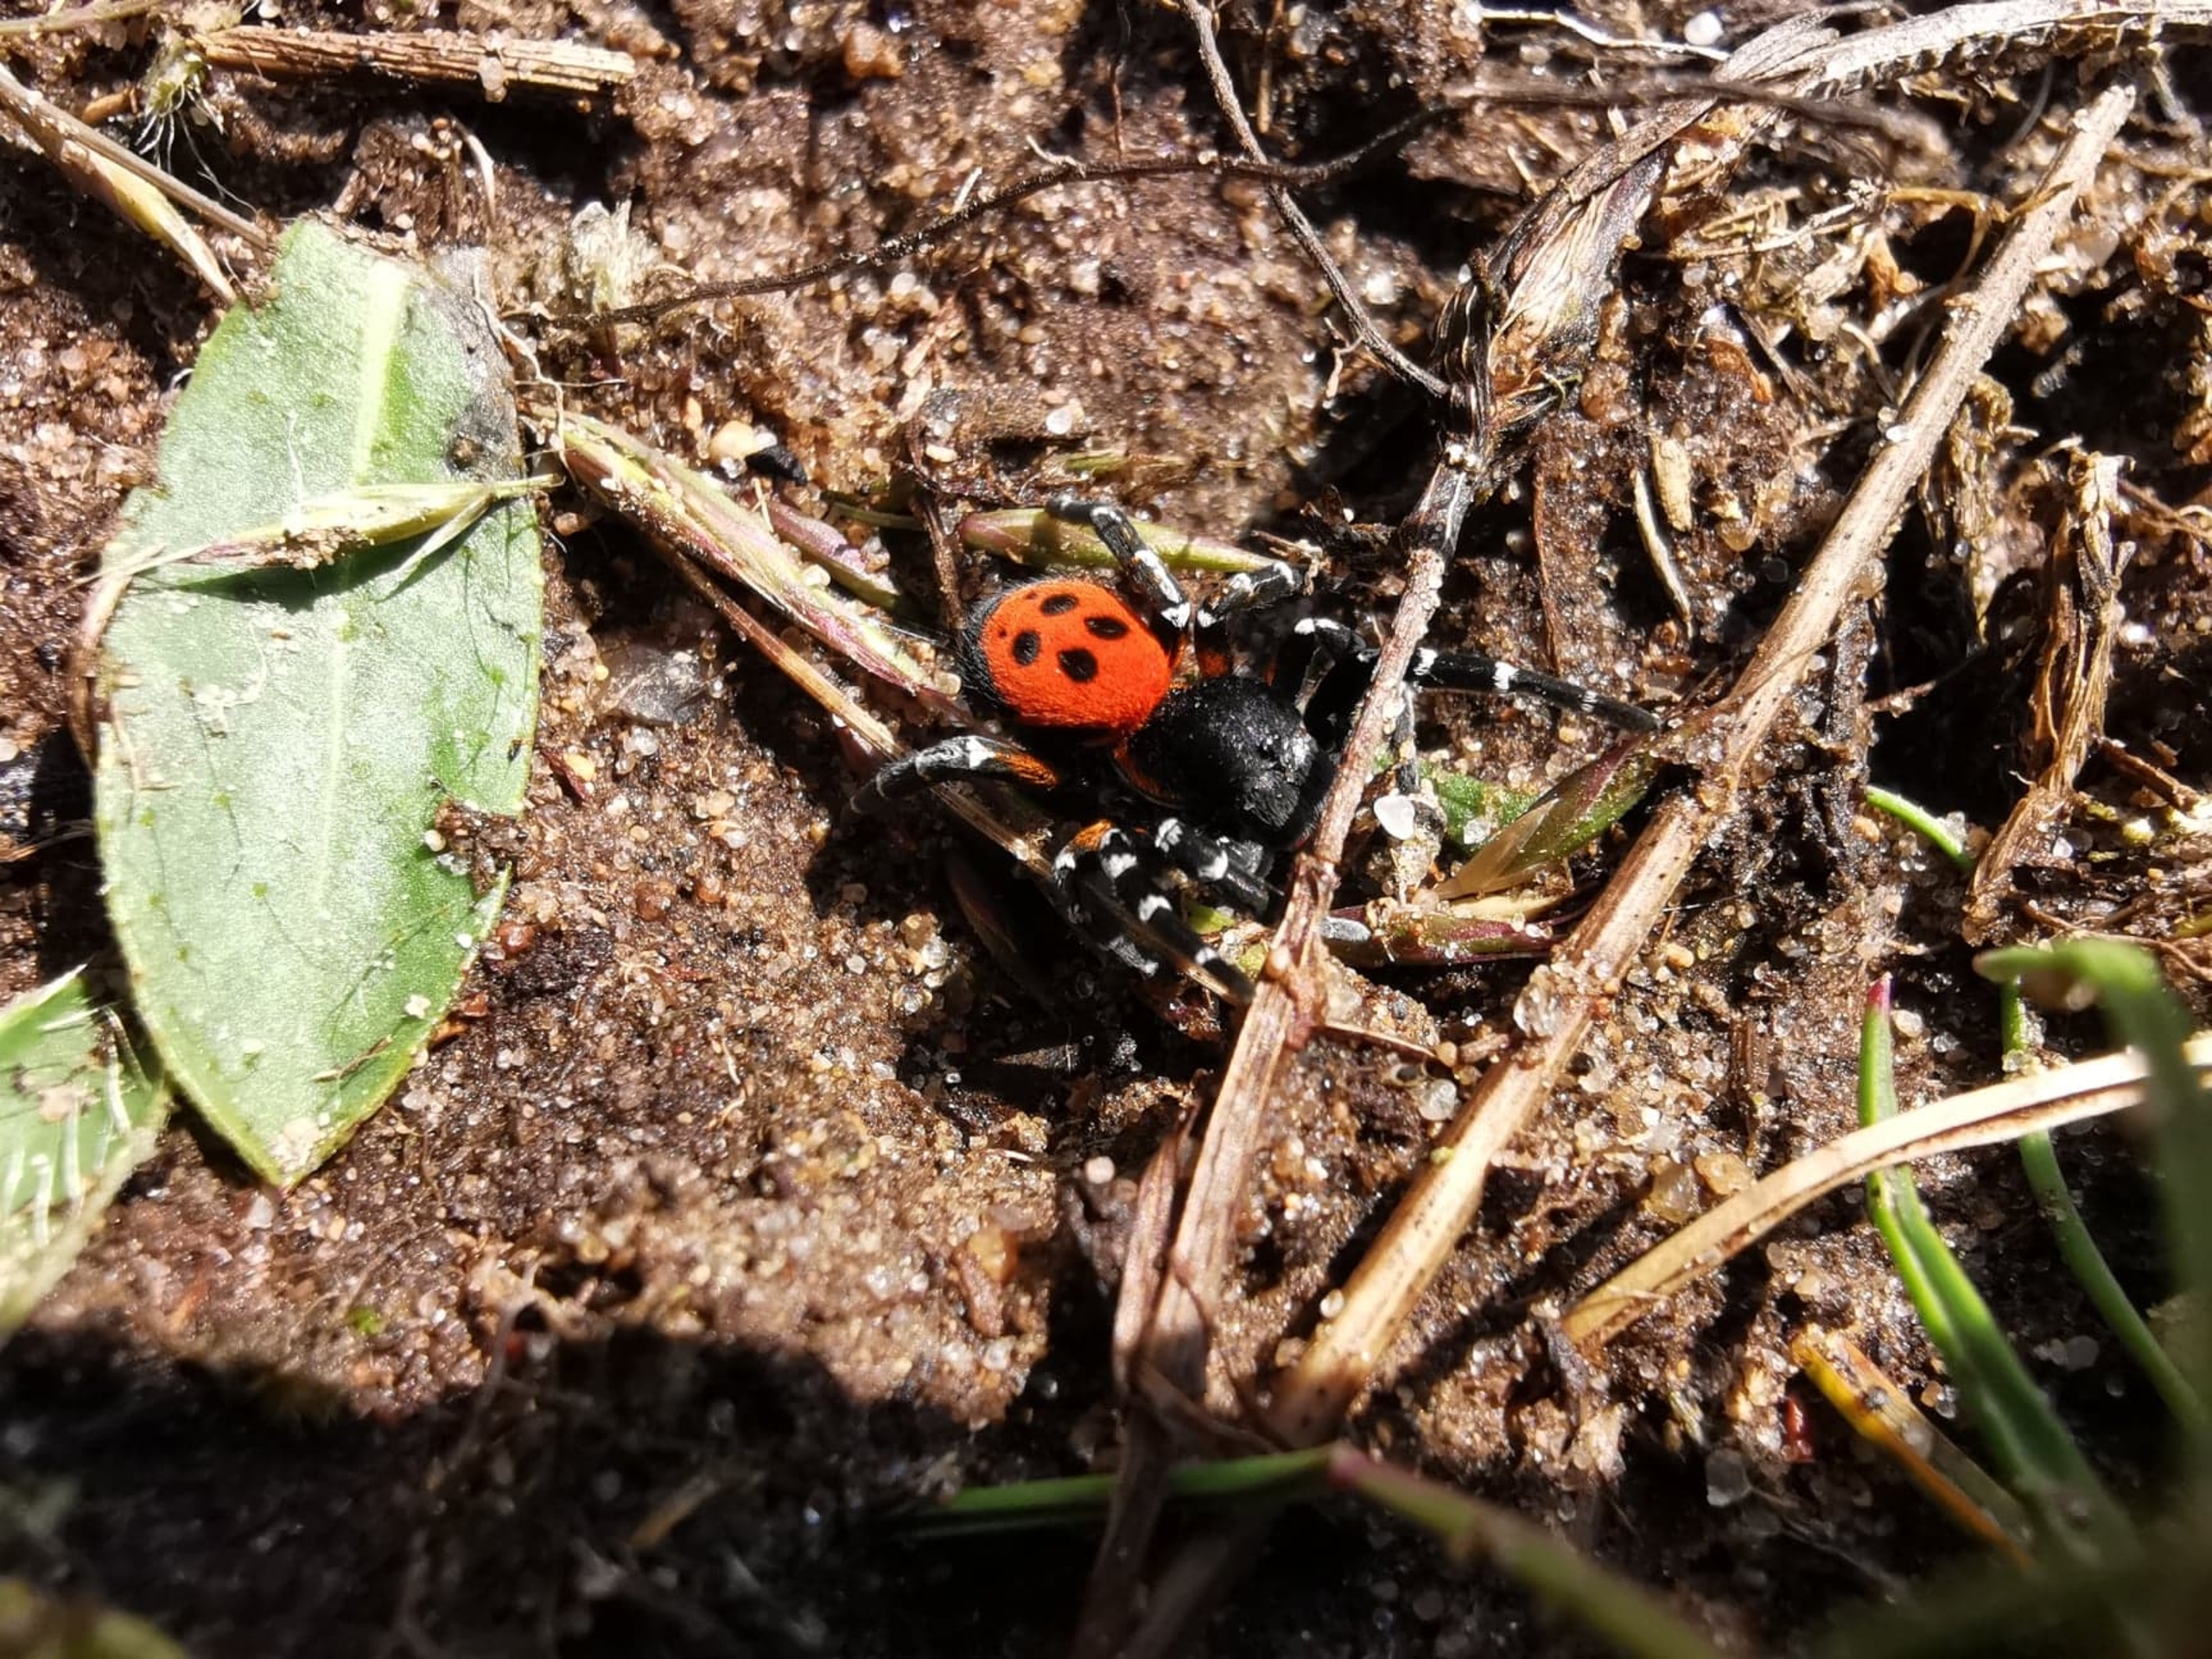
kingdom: Animalia
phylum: Arthropoda
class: Arachnida
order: Araneae
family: Eresidae
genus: Eresus
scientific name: Eresus sandaliatus
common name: Mariehøneedderkop
